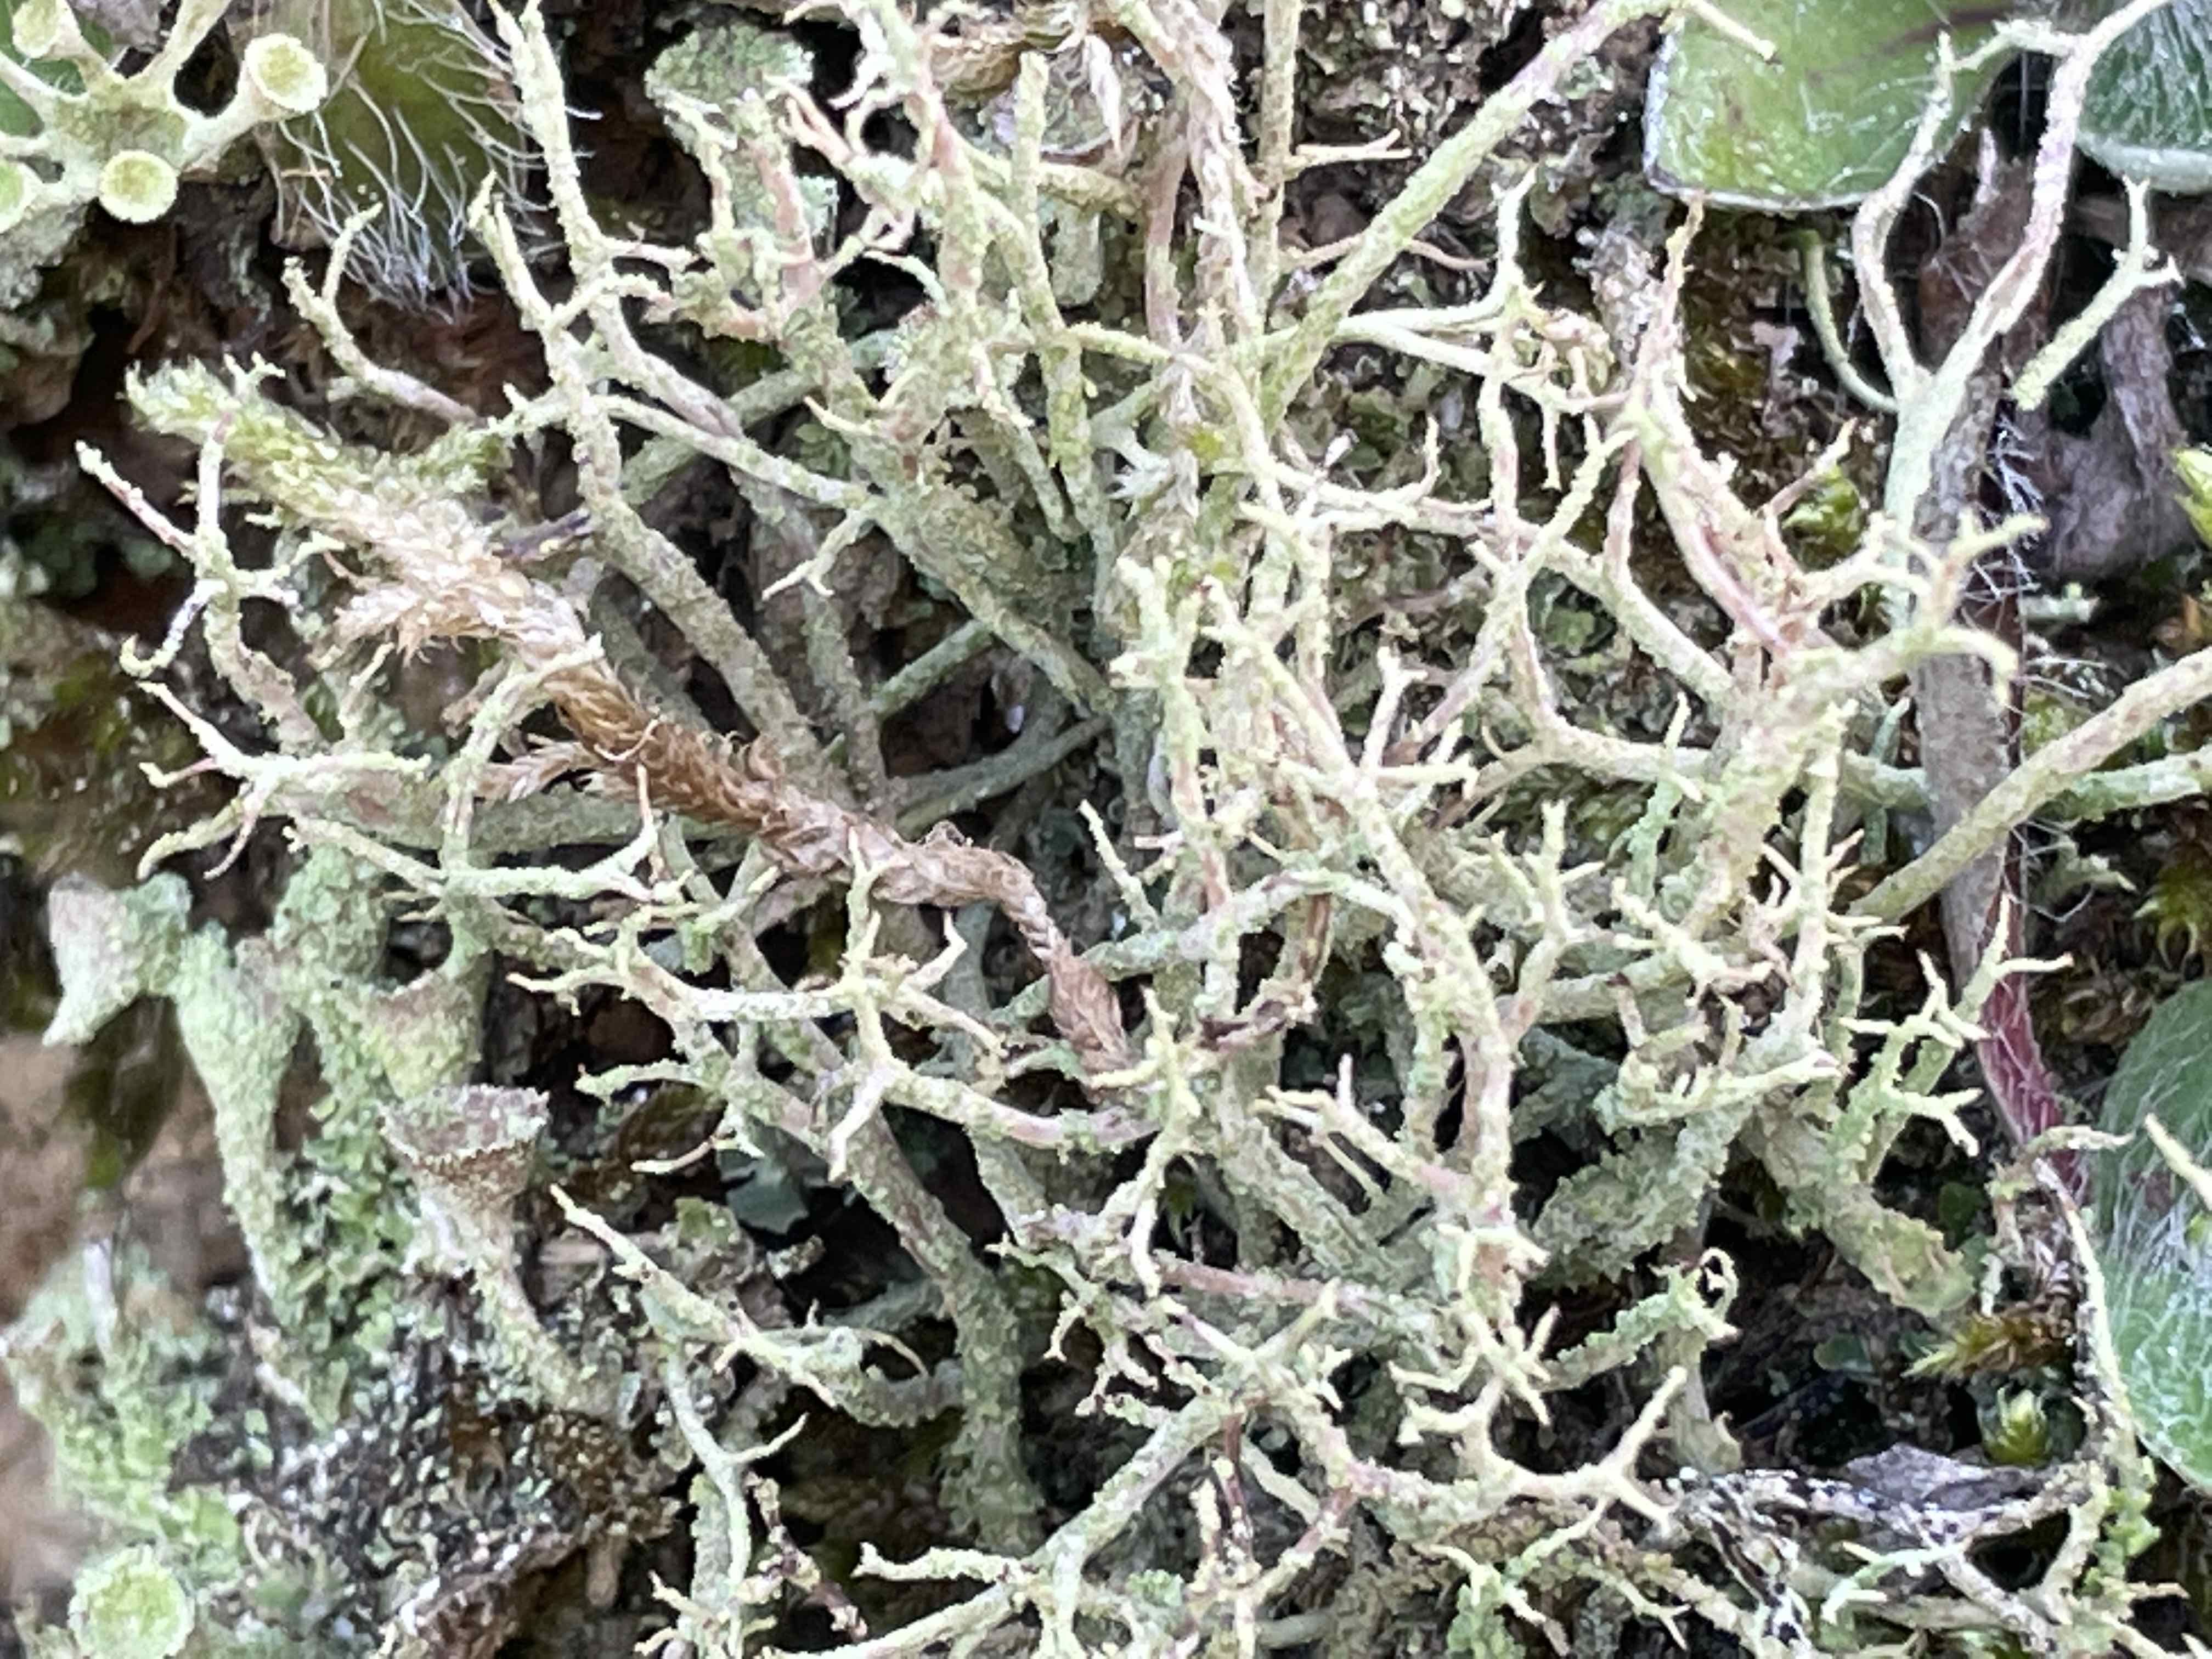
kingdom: Fungi
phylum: Ascomycota
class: Lecanoromycetes
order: Lecanorales
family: Cladoniaceae
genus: Cladonia
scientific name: Cladonia scabriuscula
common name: ru bægerlav
